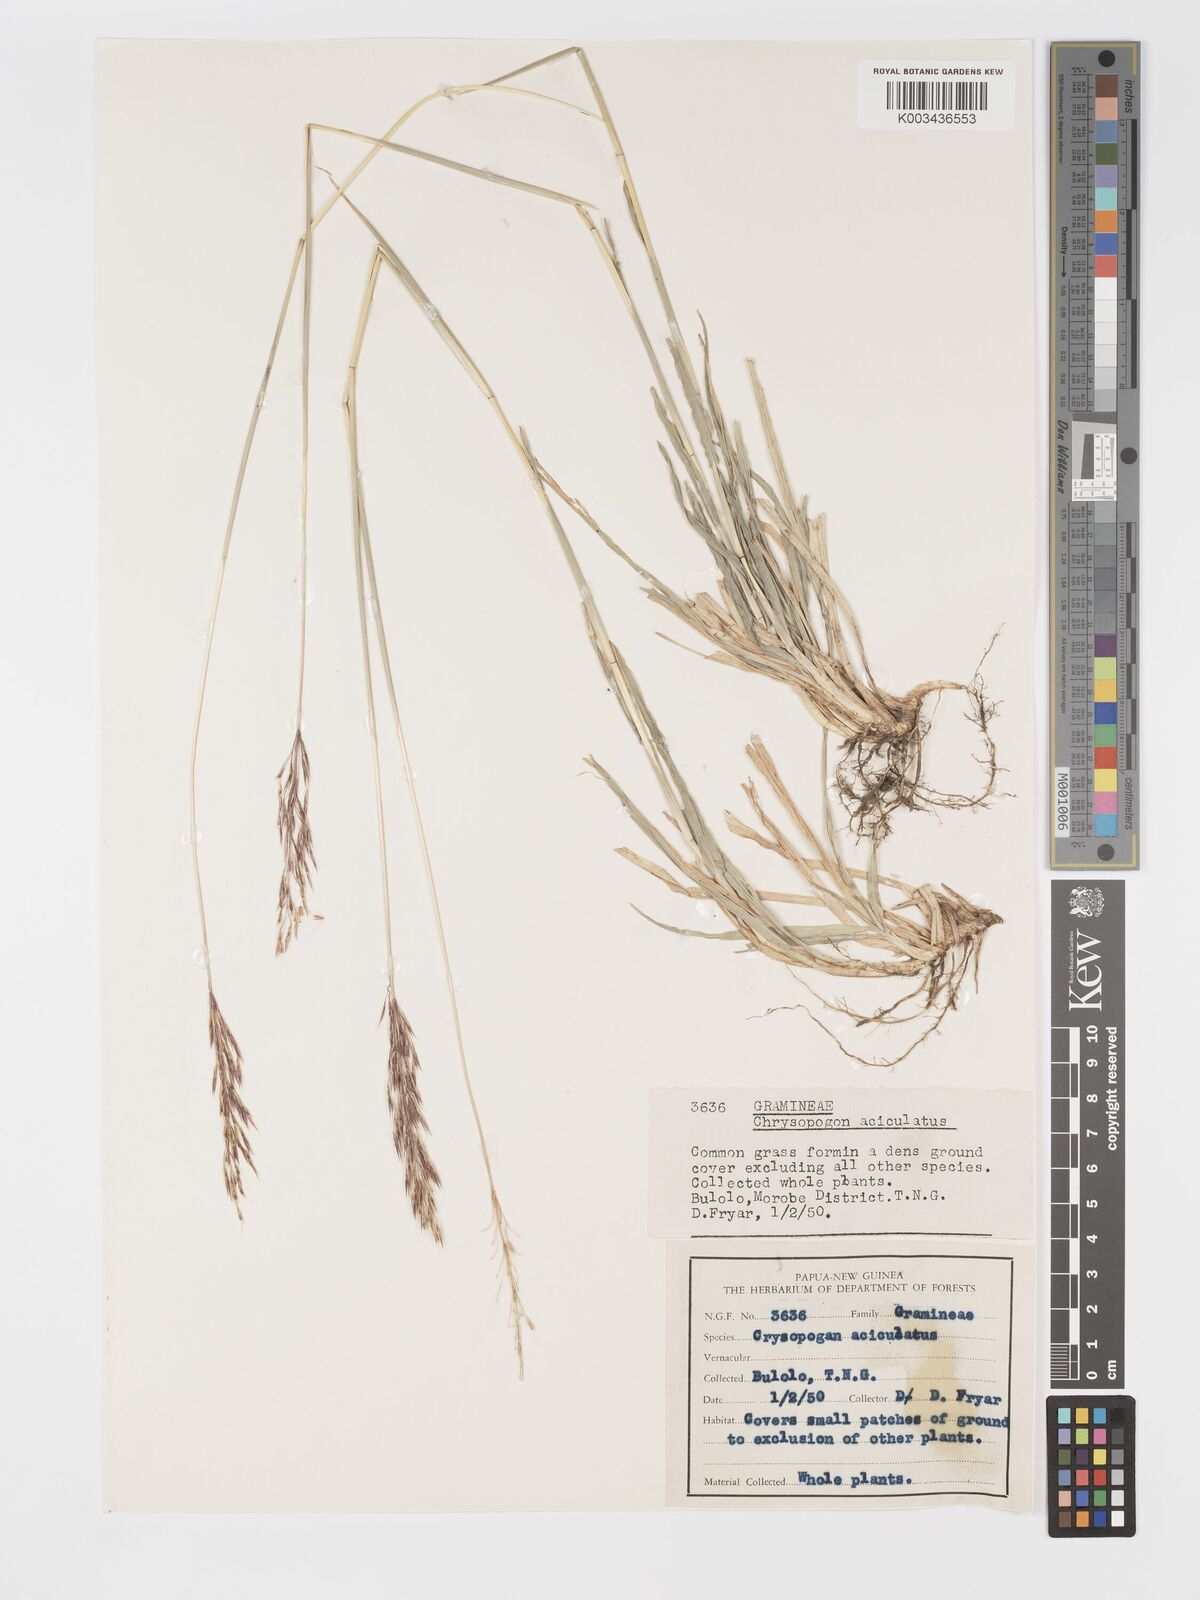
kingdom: Plantae
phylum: Tracheophyta
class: Liliopsida
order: Poales
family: Poaceae
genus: Chrysopogon
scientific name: Chrysopogon aciculatus
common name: Pilipiliula
